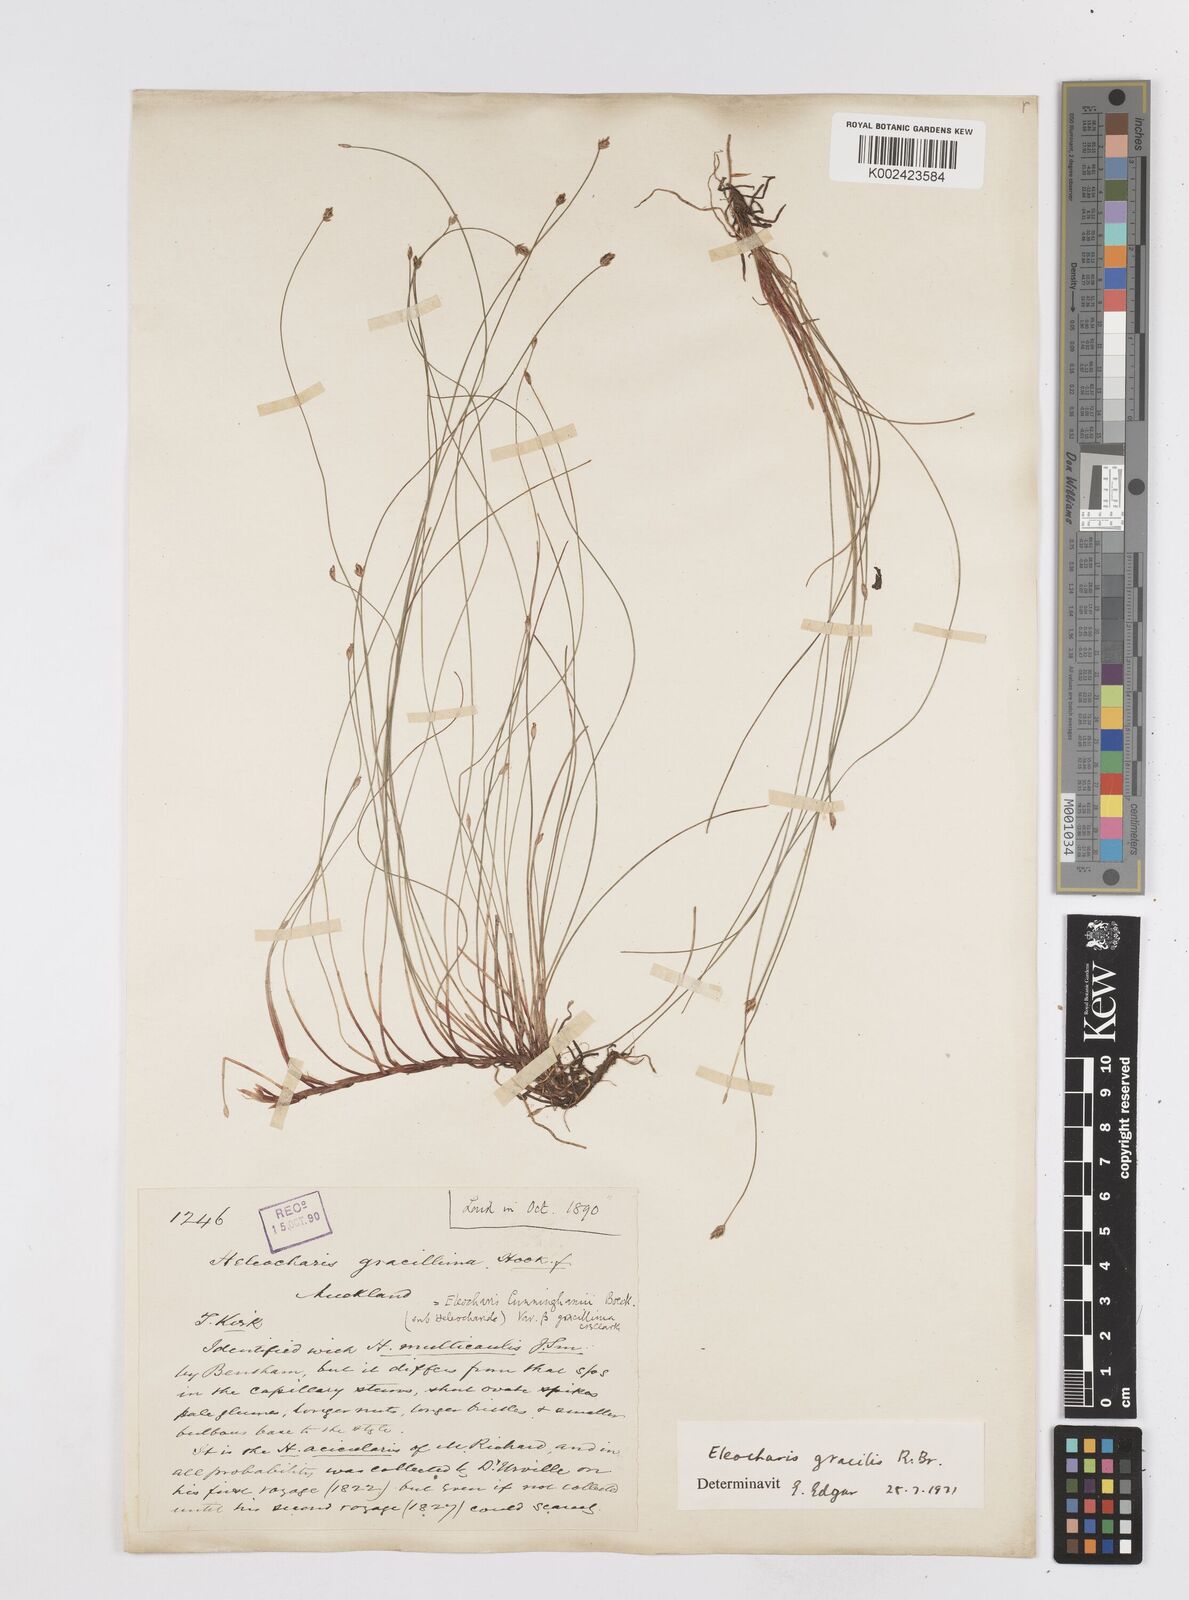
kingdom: Plantae
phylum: Tracheophyta
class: Liliopsida
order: Poales
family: Cyperaceae
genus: Eleocharis
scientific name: Eleocharis gracilis
